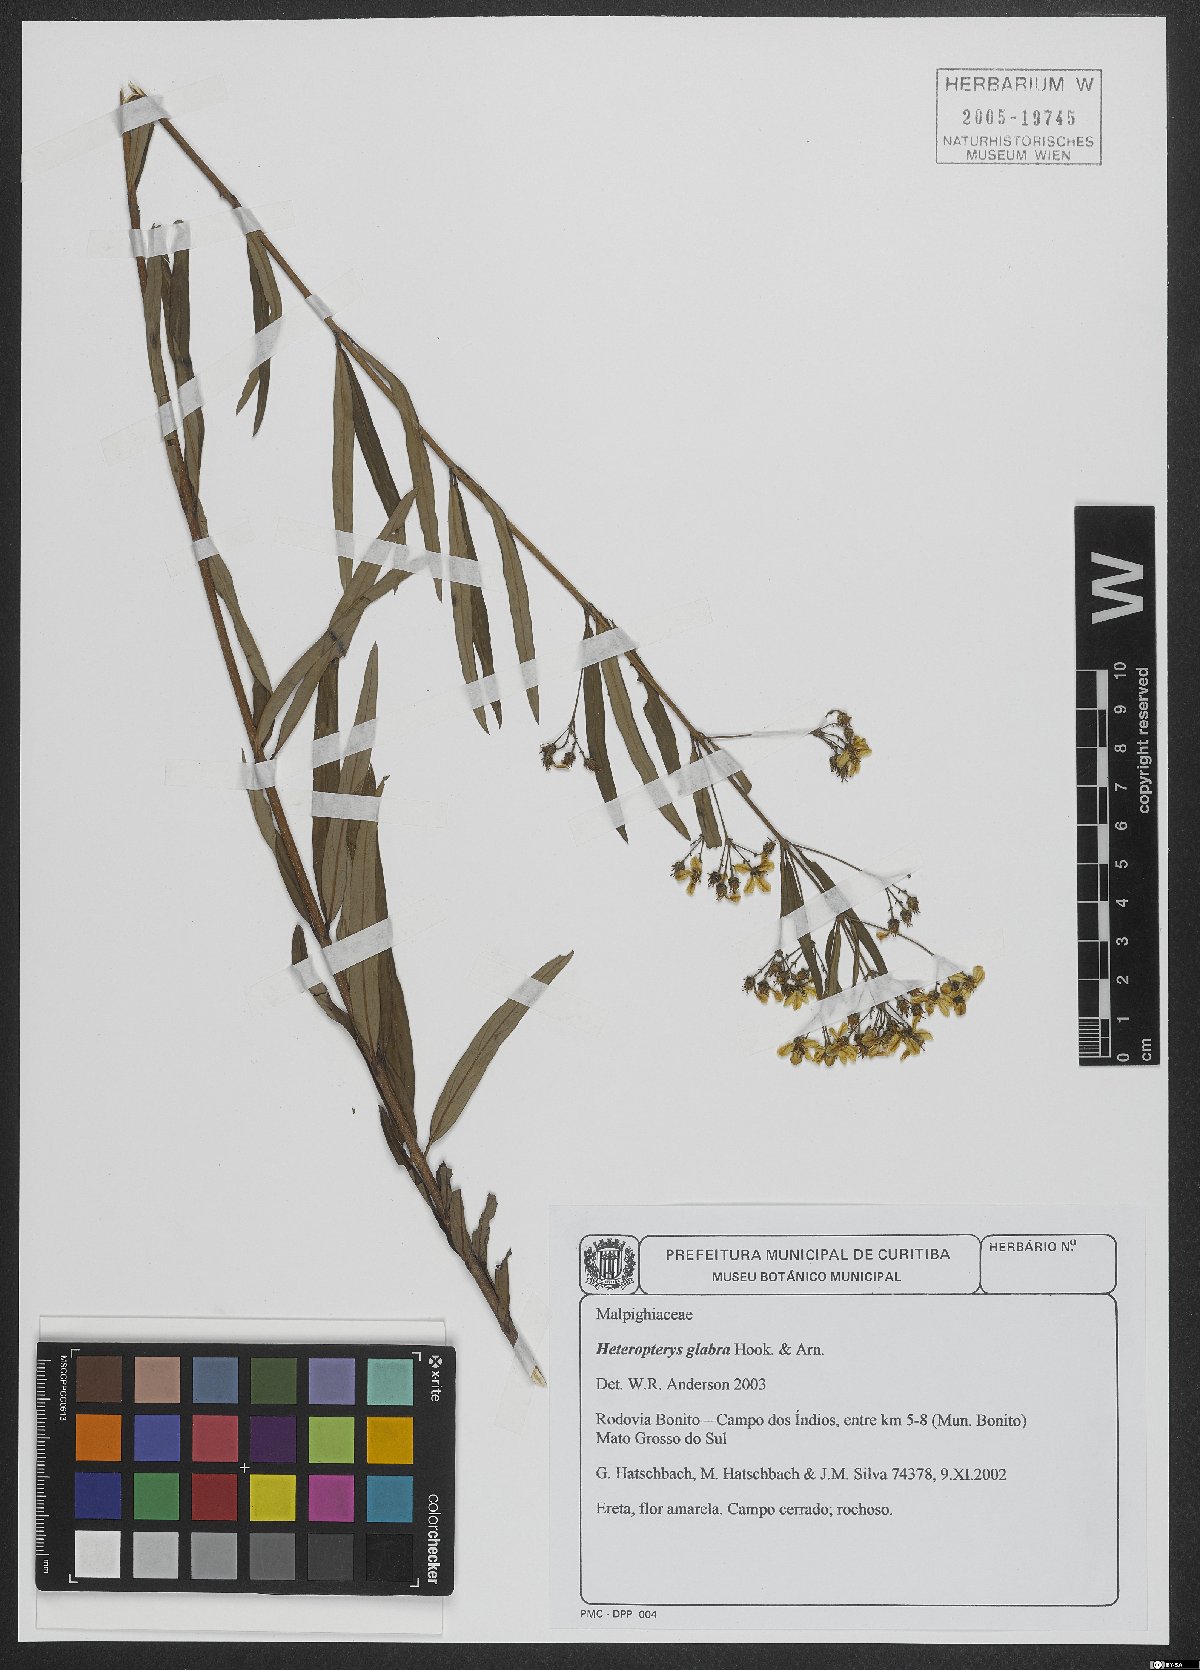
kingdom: Plantae
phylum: Tracheophyta
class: Magnoliopsida
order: Malpighiales
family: Malpighiaceae
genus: Heteropterys
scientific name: Heteropterys glabra
